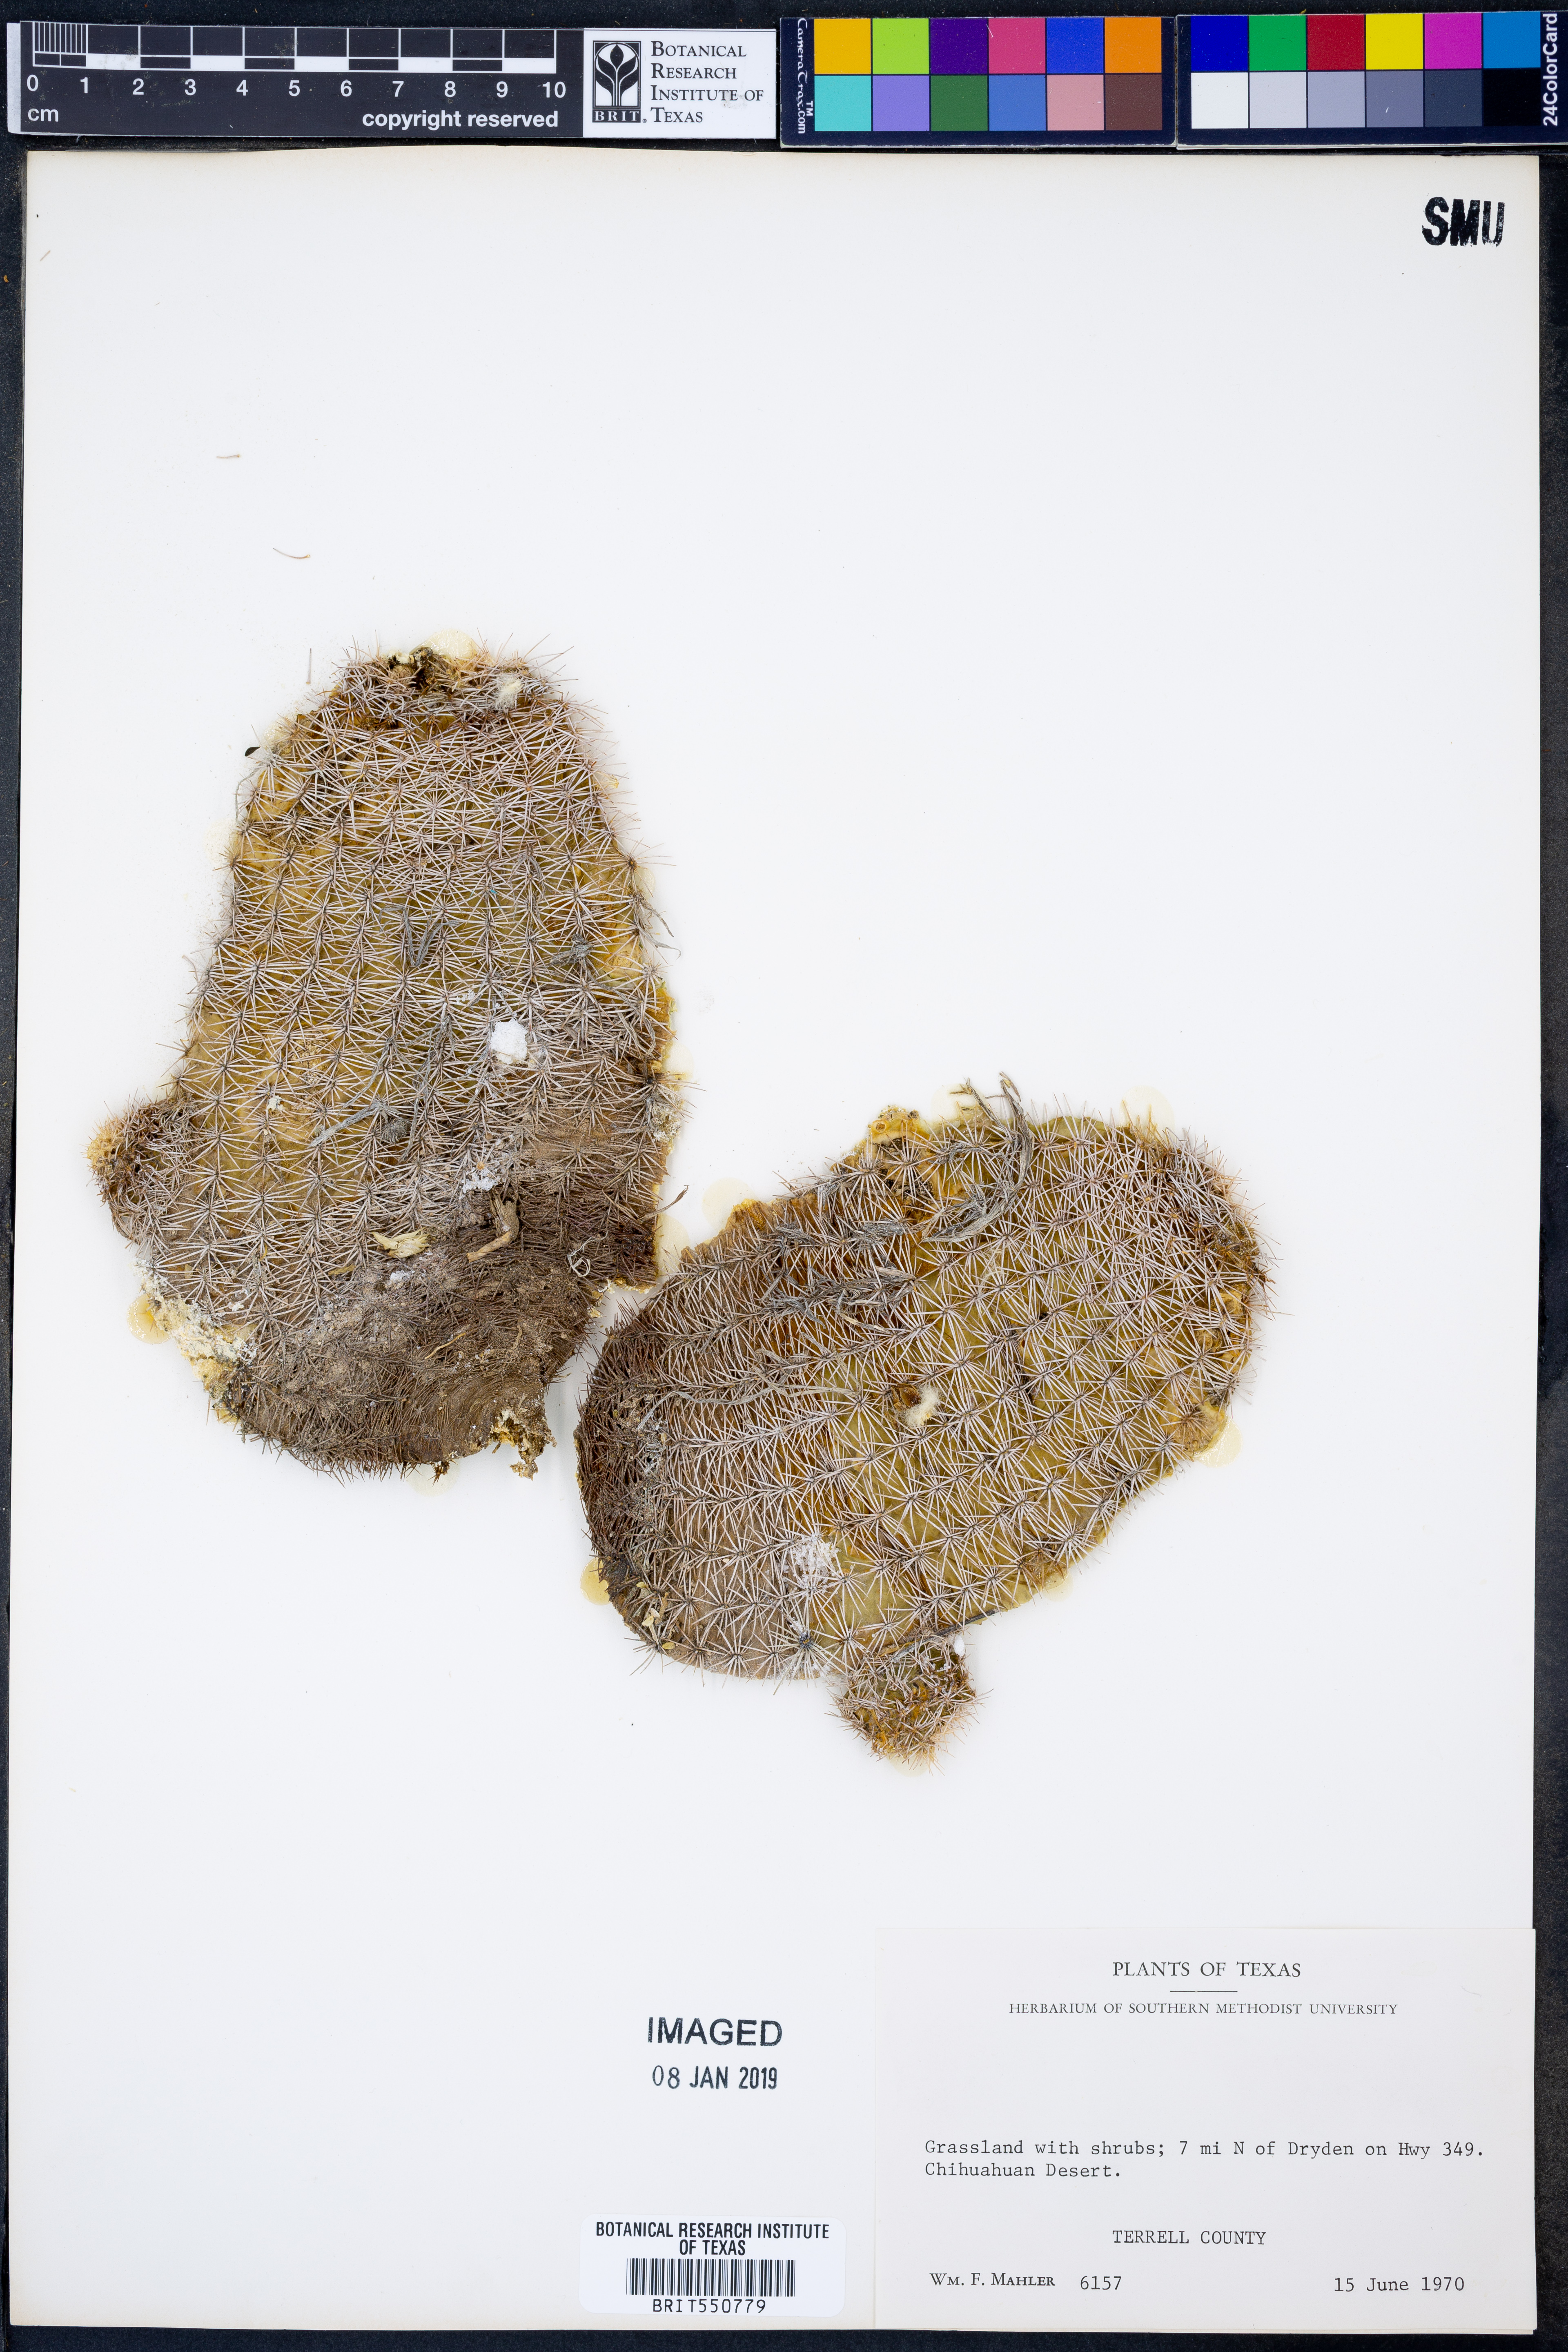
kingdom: Plantae
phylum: Tracheophyta
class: Magnoliopsida
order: Caryophyllales
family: Cactaceae
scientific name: Cactaceae
